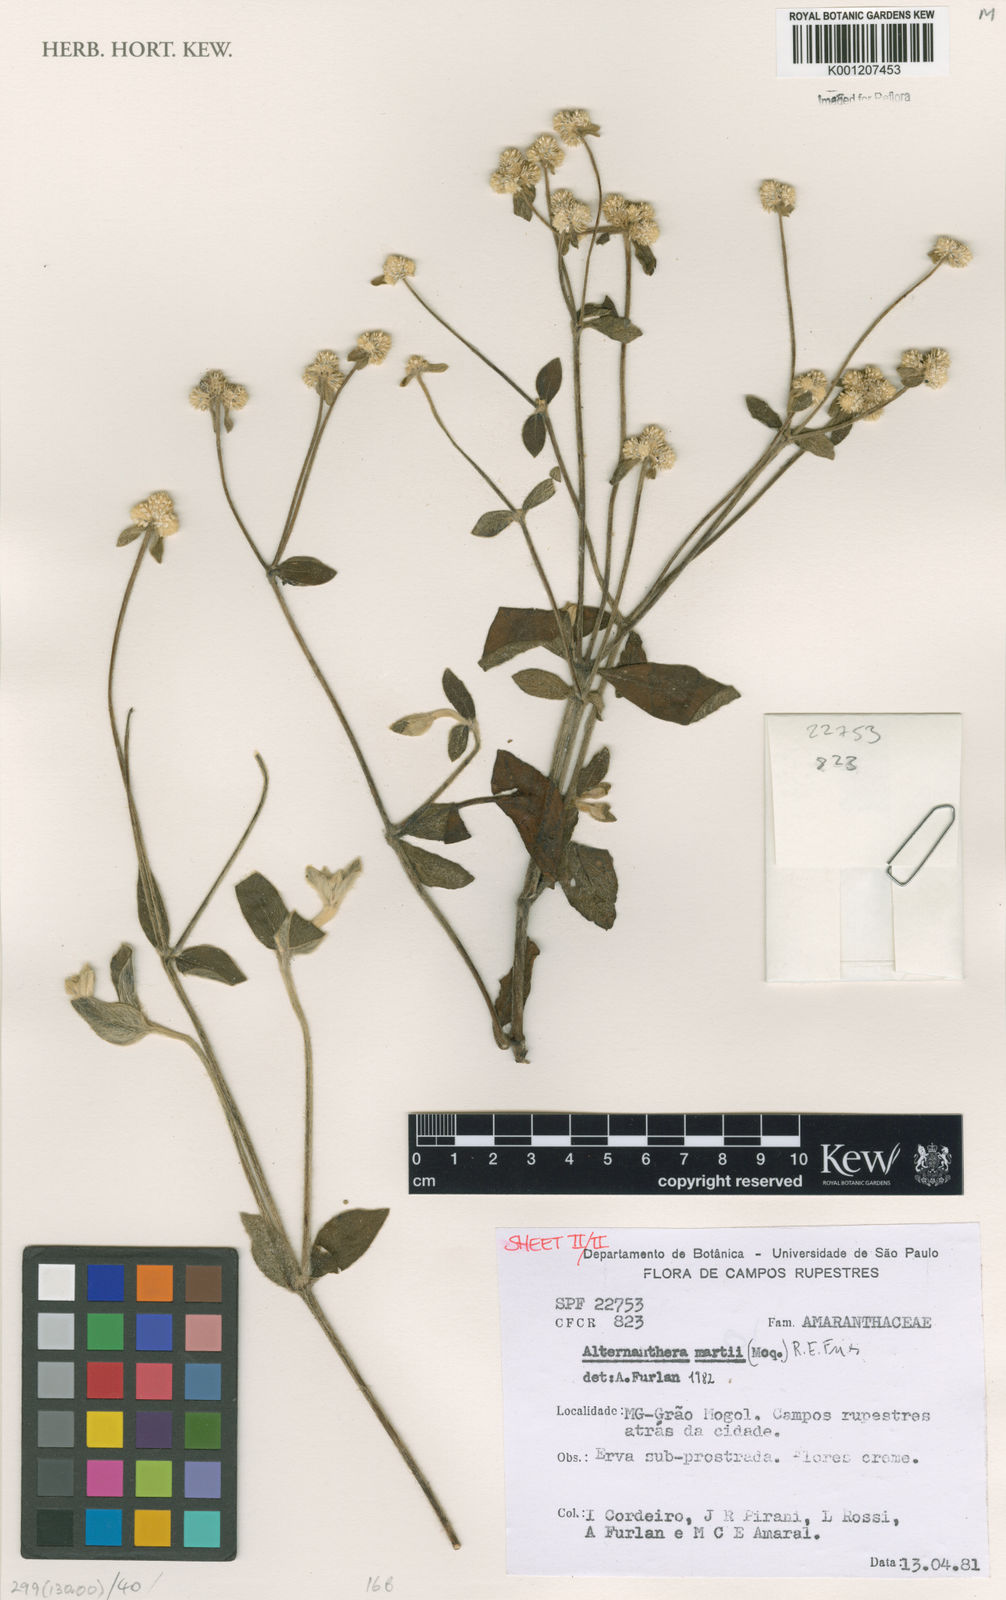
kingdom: Plantae
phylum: Tracheophyta
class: Magnoliopsida
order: Caryophyllales
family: Amaranthaceae
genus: Alternanthera
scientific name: Alternanthera martii
